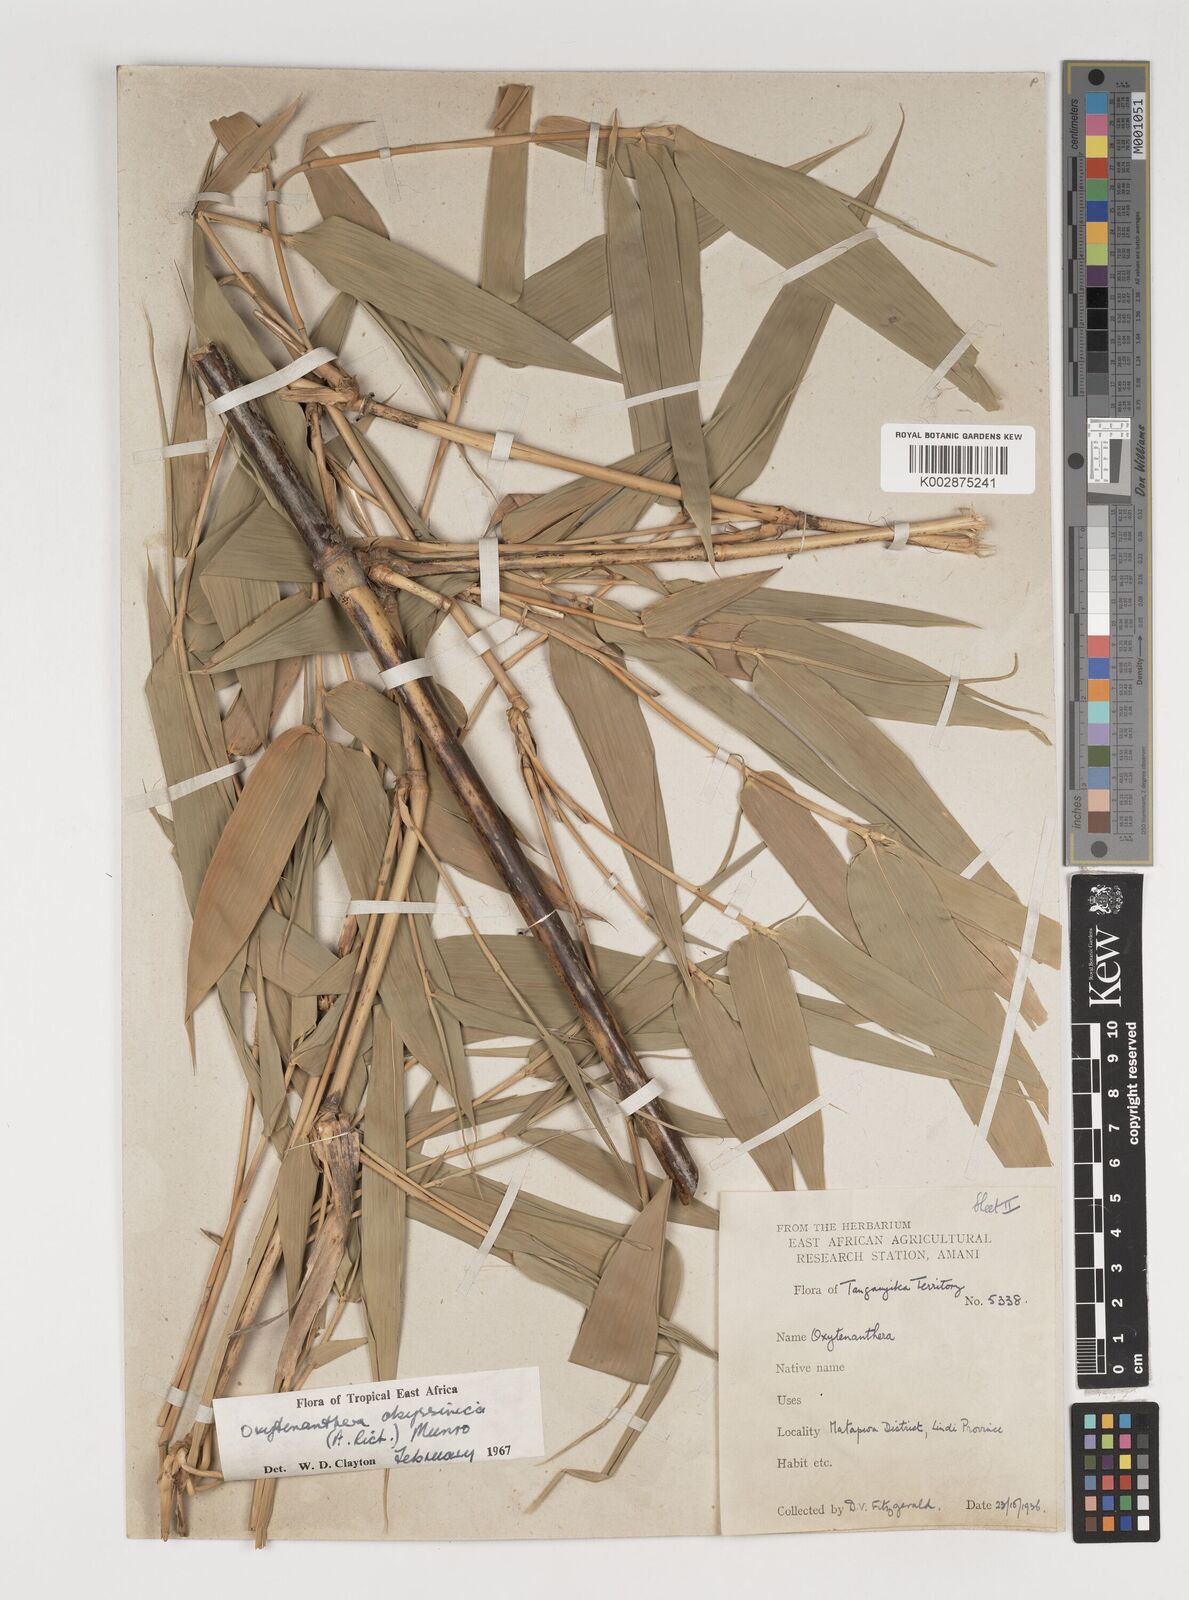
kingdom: Plantae
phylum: Tracheophyta
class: Liliopsida
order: Poales
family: Poaceae
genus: Oxytenanthera
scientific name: Oxytenanthera
